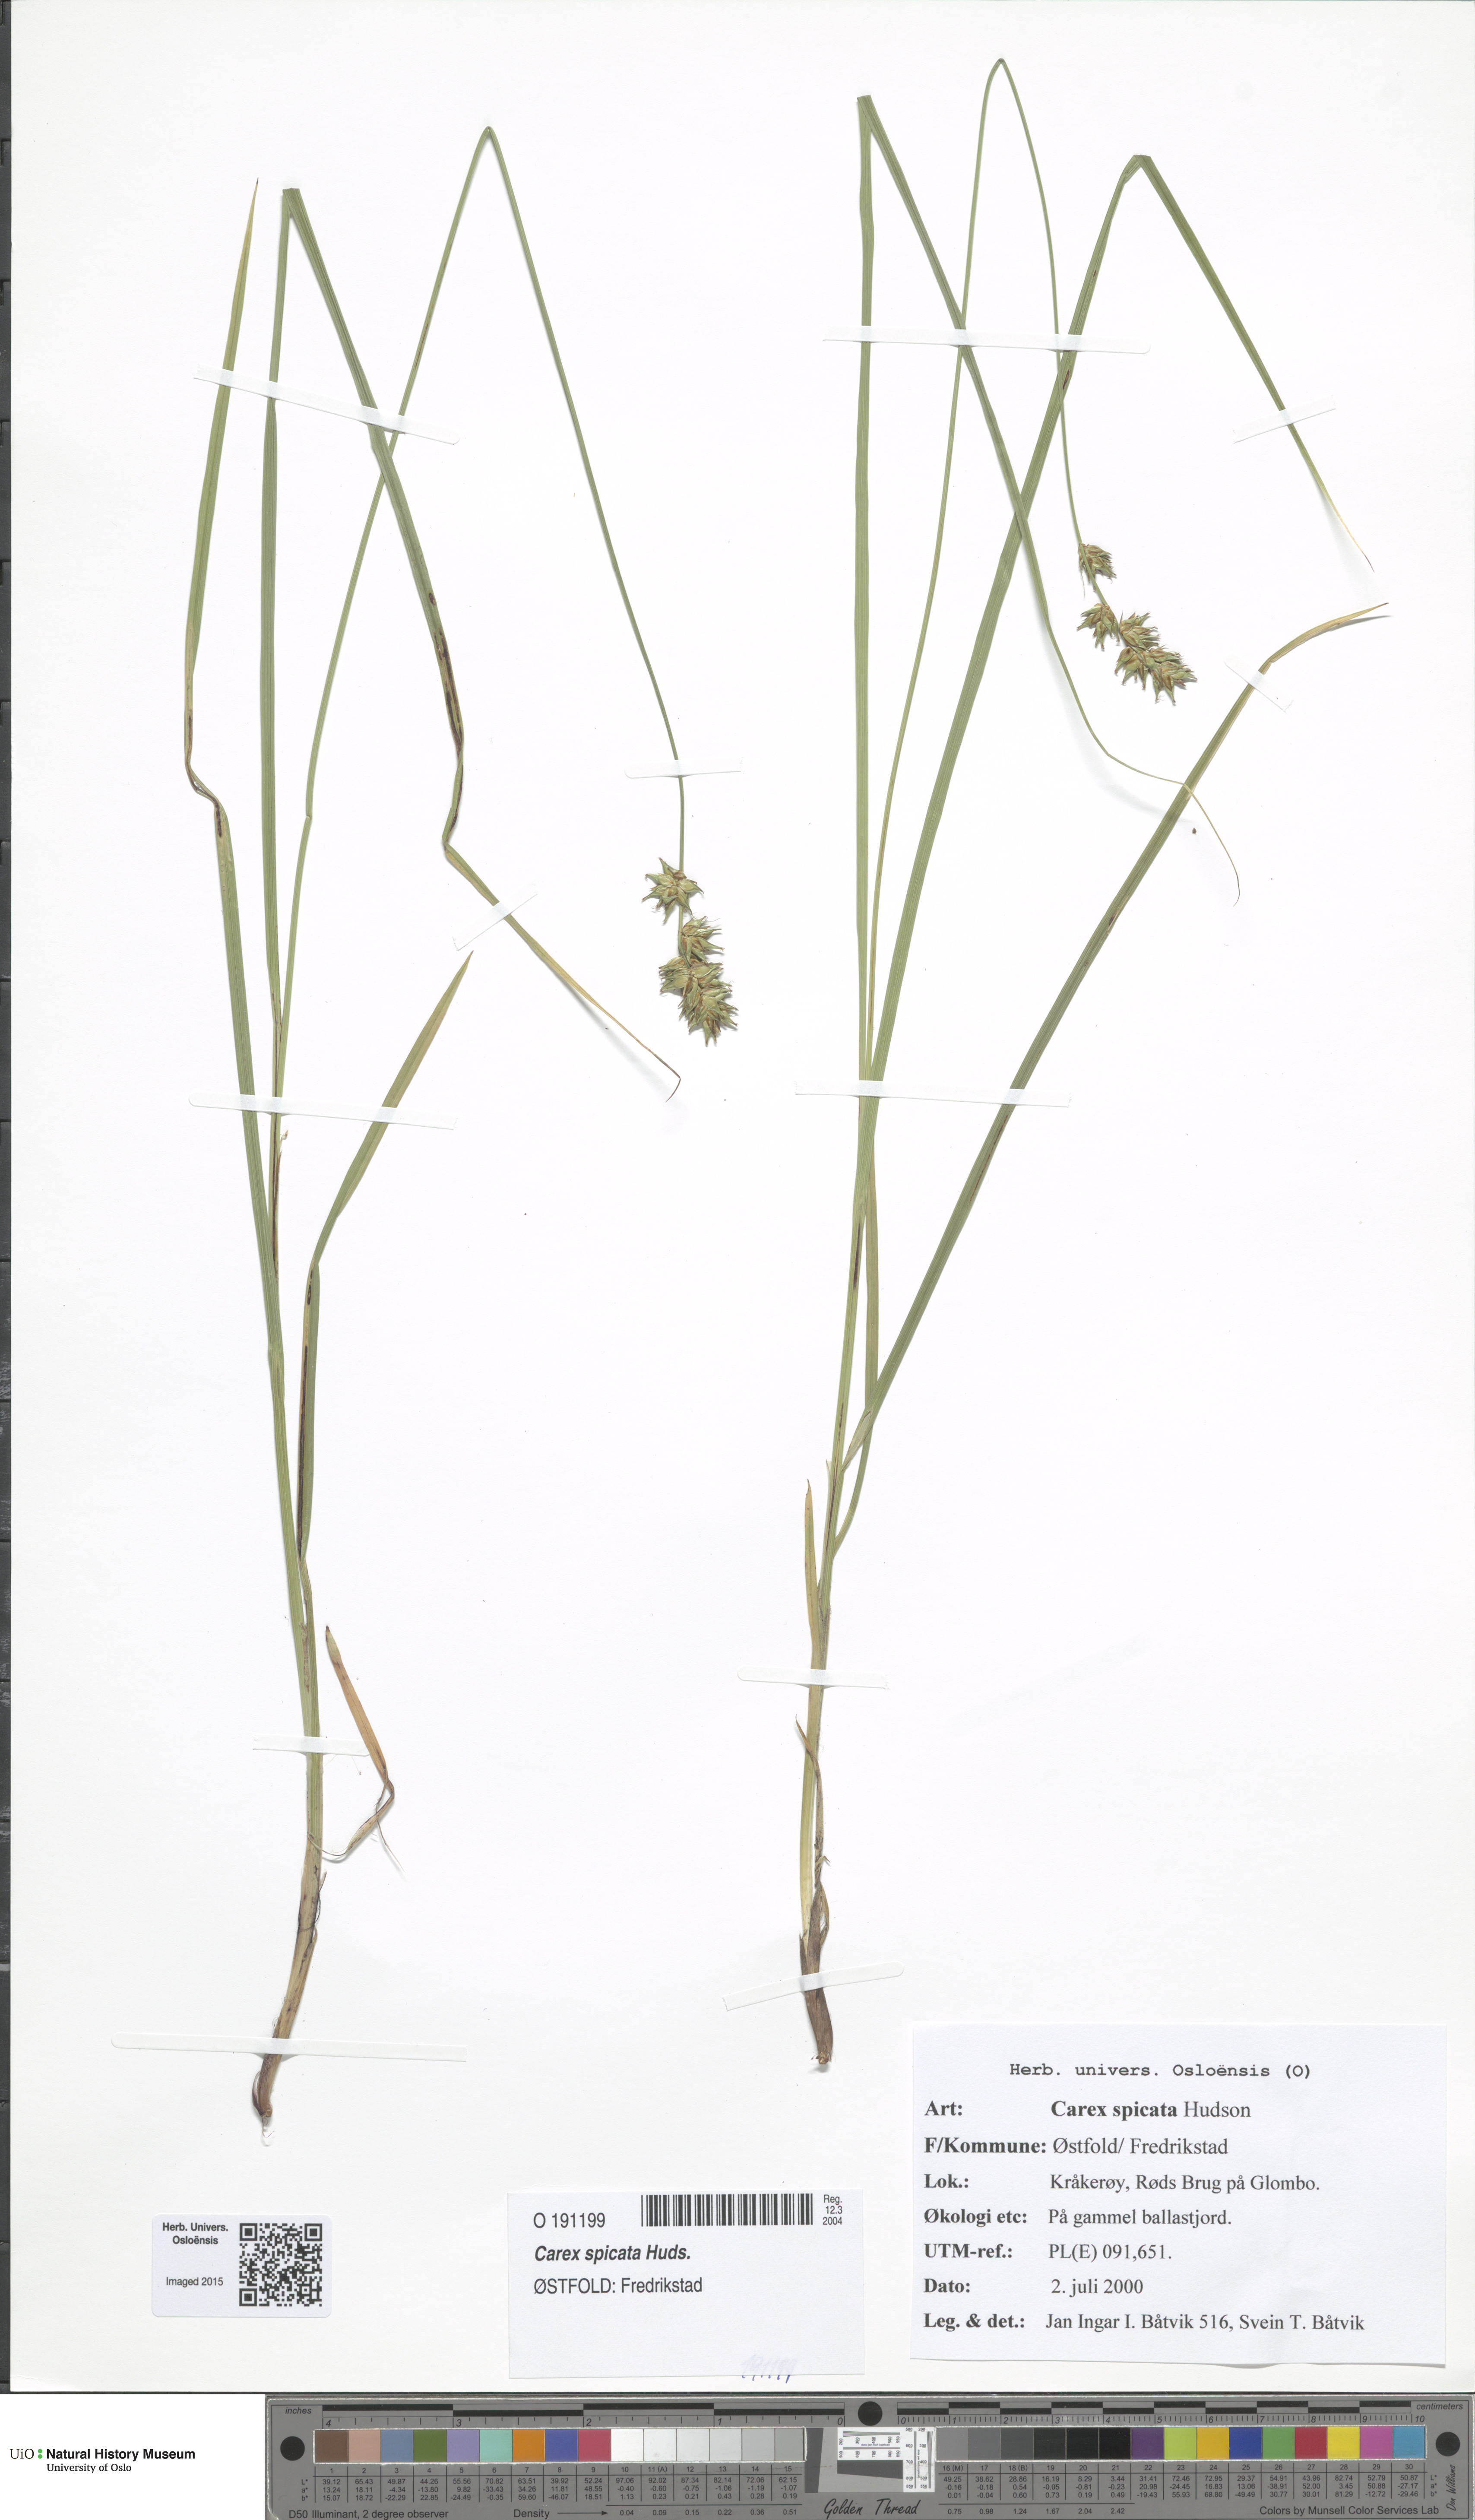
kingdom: Plantae
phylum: Tracheophyta
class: Liliopsida
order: Poales
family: Cyperaceae
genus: Carex
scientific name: Carex spicata
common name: Spiked sedge
